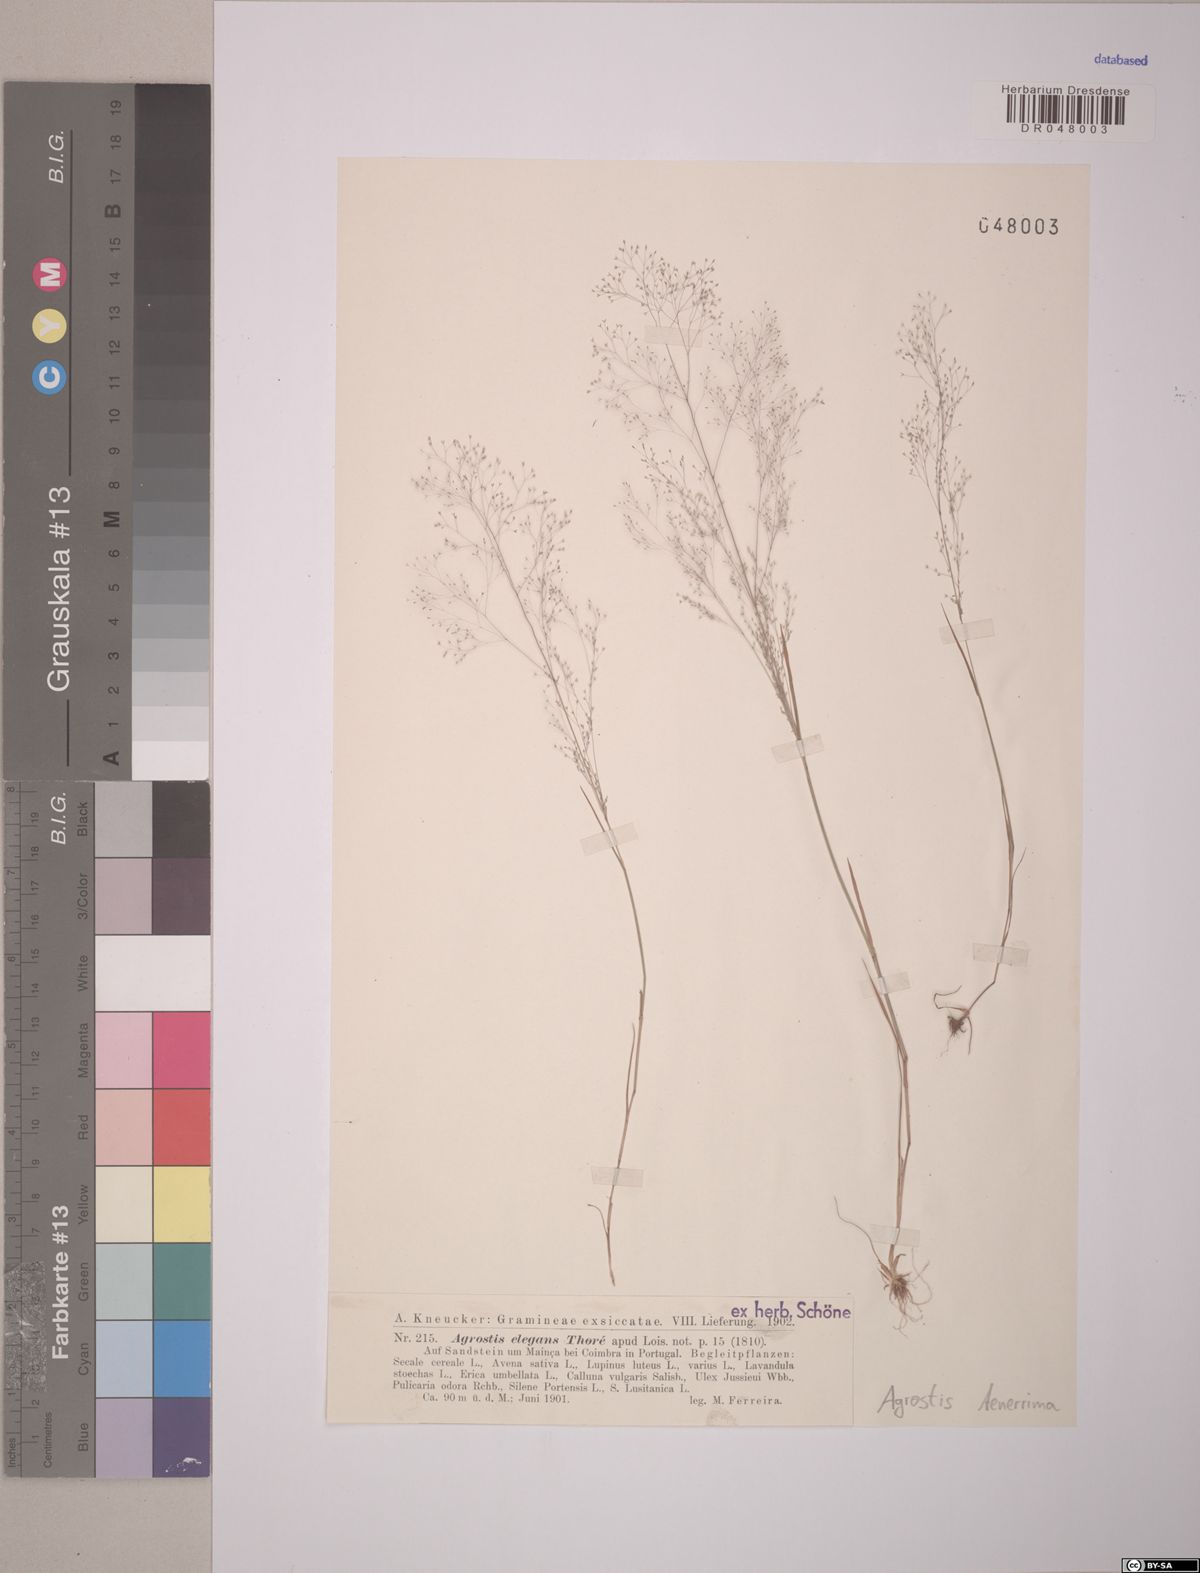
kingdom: Plantae
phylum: Tracheophyta
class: Liliopsida
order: Poales
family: Poaceae
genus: Agrostis
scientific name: Agrostis tenerrima
